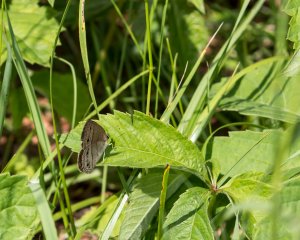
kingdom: Animalia
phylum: Arthropoda
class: Insecta
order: Lepidoptera
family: Nymphalidae
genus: Euptychia
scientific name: Euptychia cymela
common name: Little Wood Satyr
